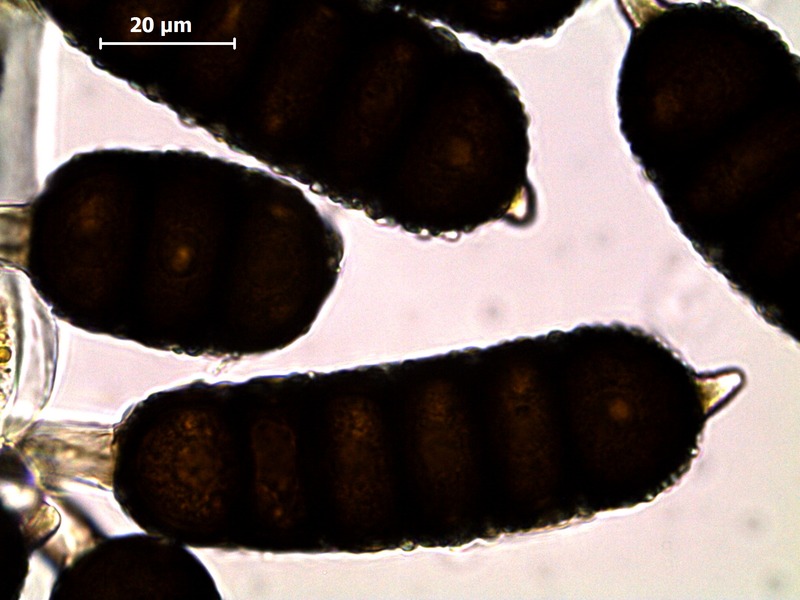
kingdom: Fungi
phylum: Basidiomycota
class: Pucciniomycetes
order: Pucciniales
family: Phragmidiaceae
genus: Phragmidium
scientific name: Phragmidium bulbosum
